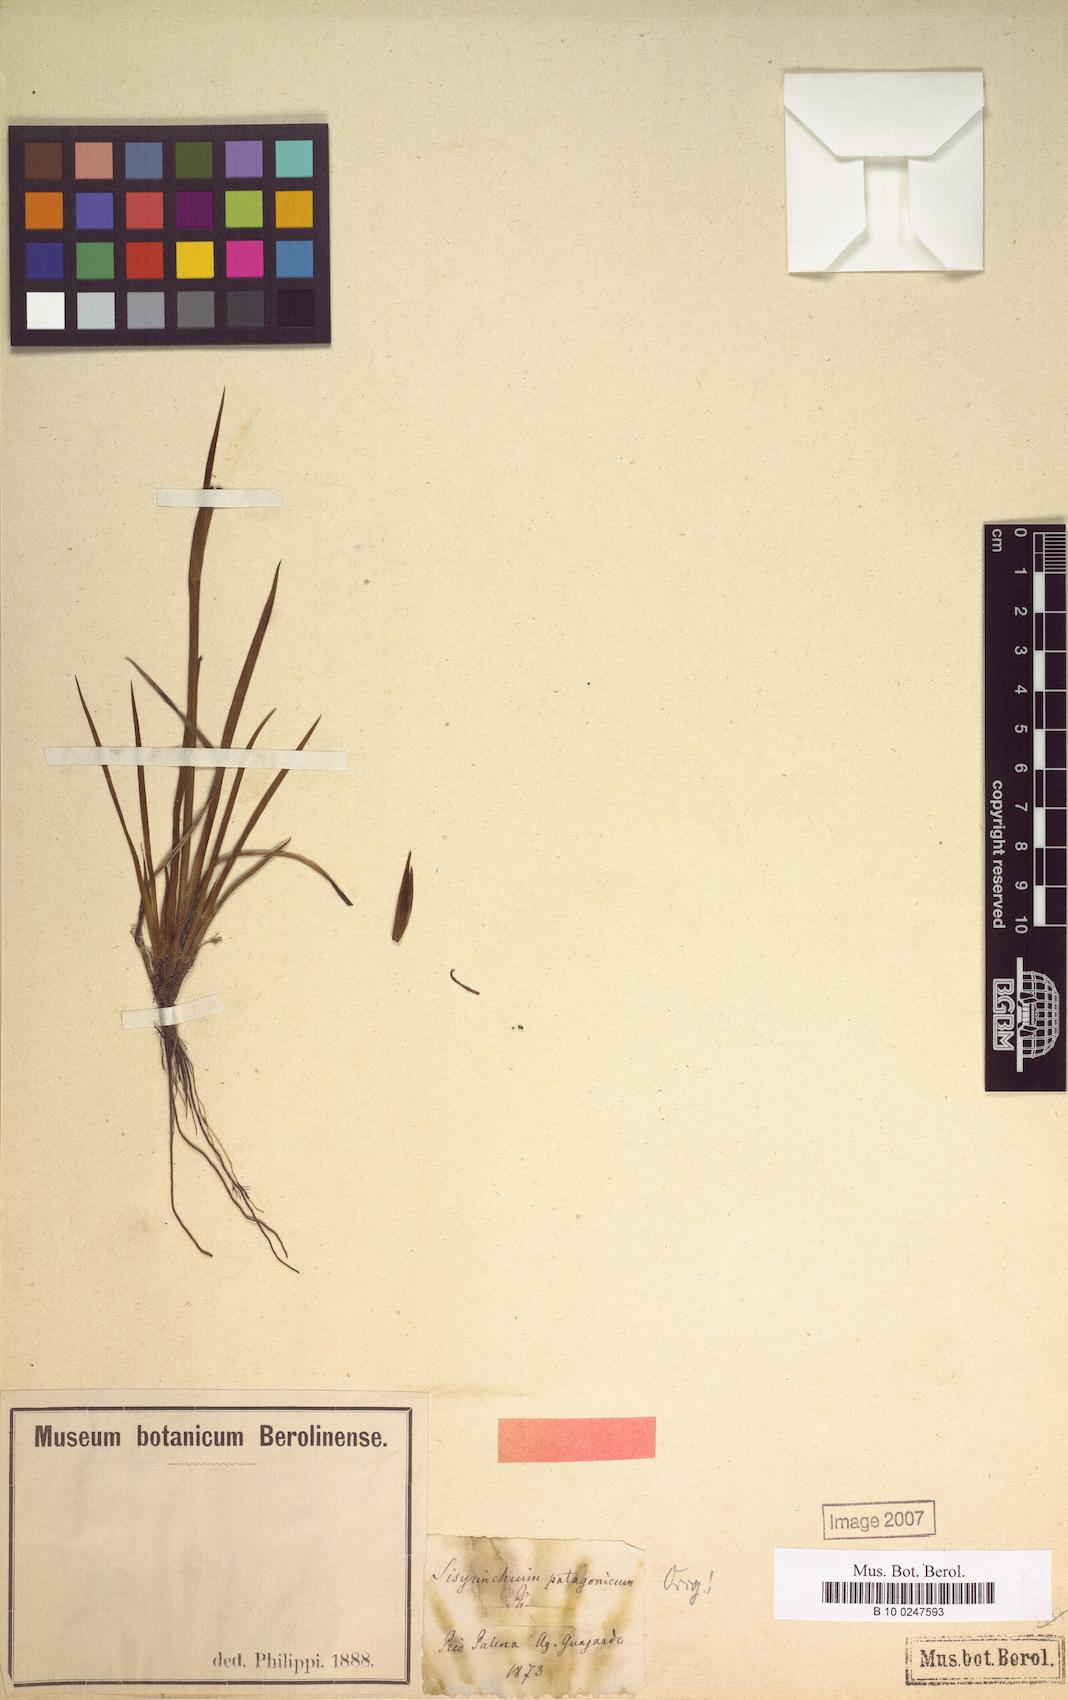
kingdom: Plantae
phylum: Tracheophyta
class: Liliopsida
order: Asparagales
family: Iridaceae
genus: Sisyrinchium
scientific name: Sisyrinchium patagonicum
